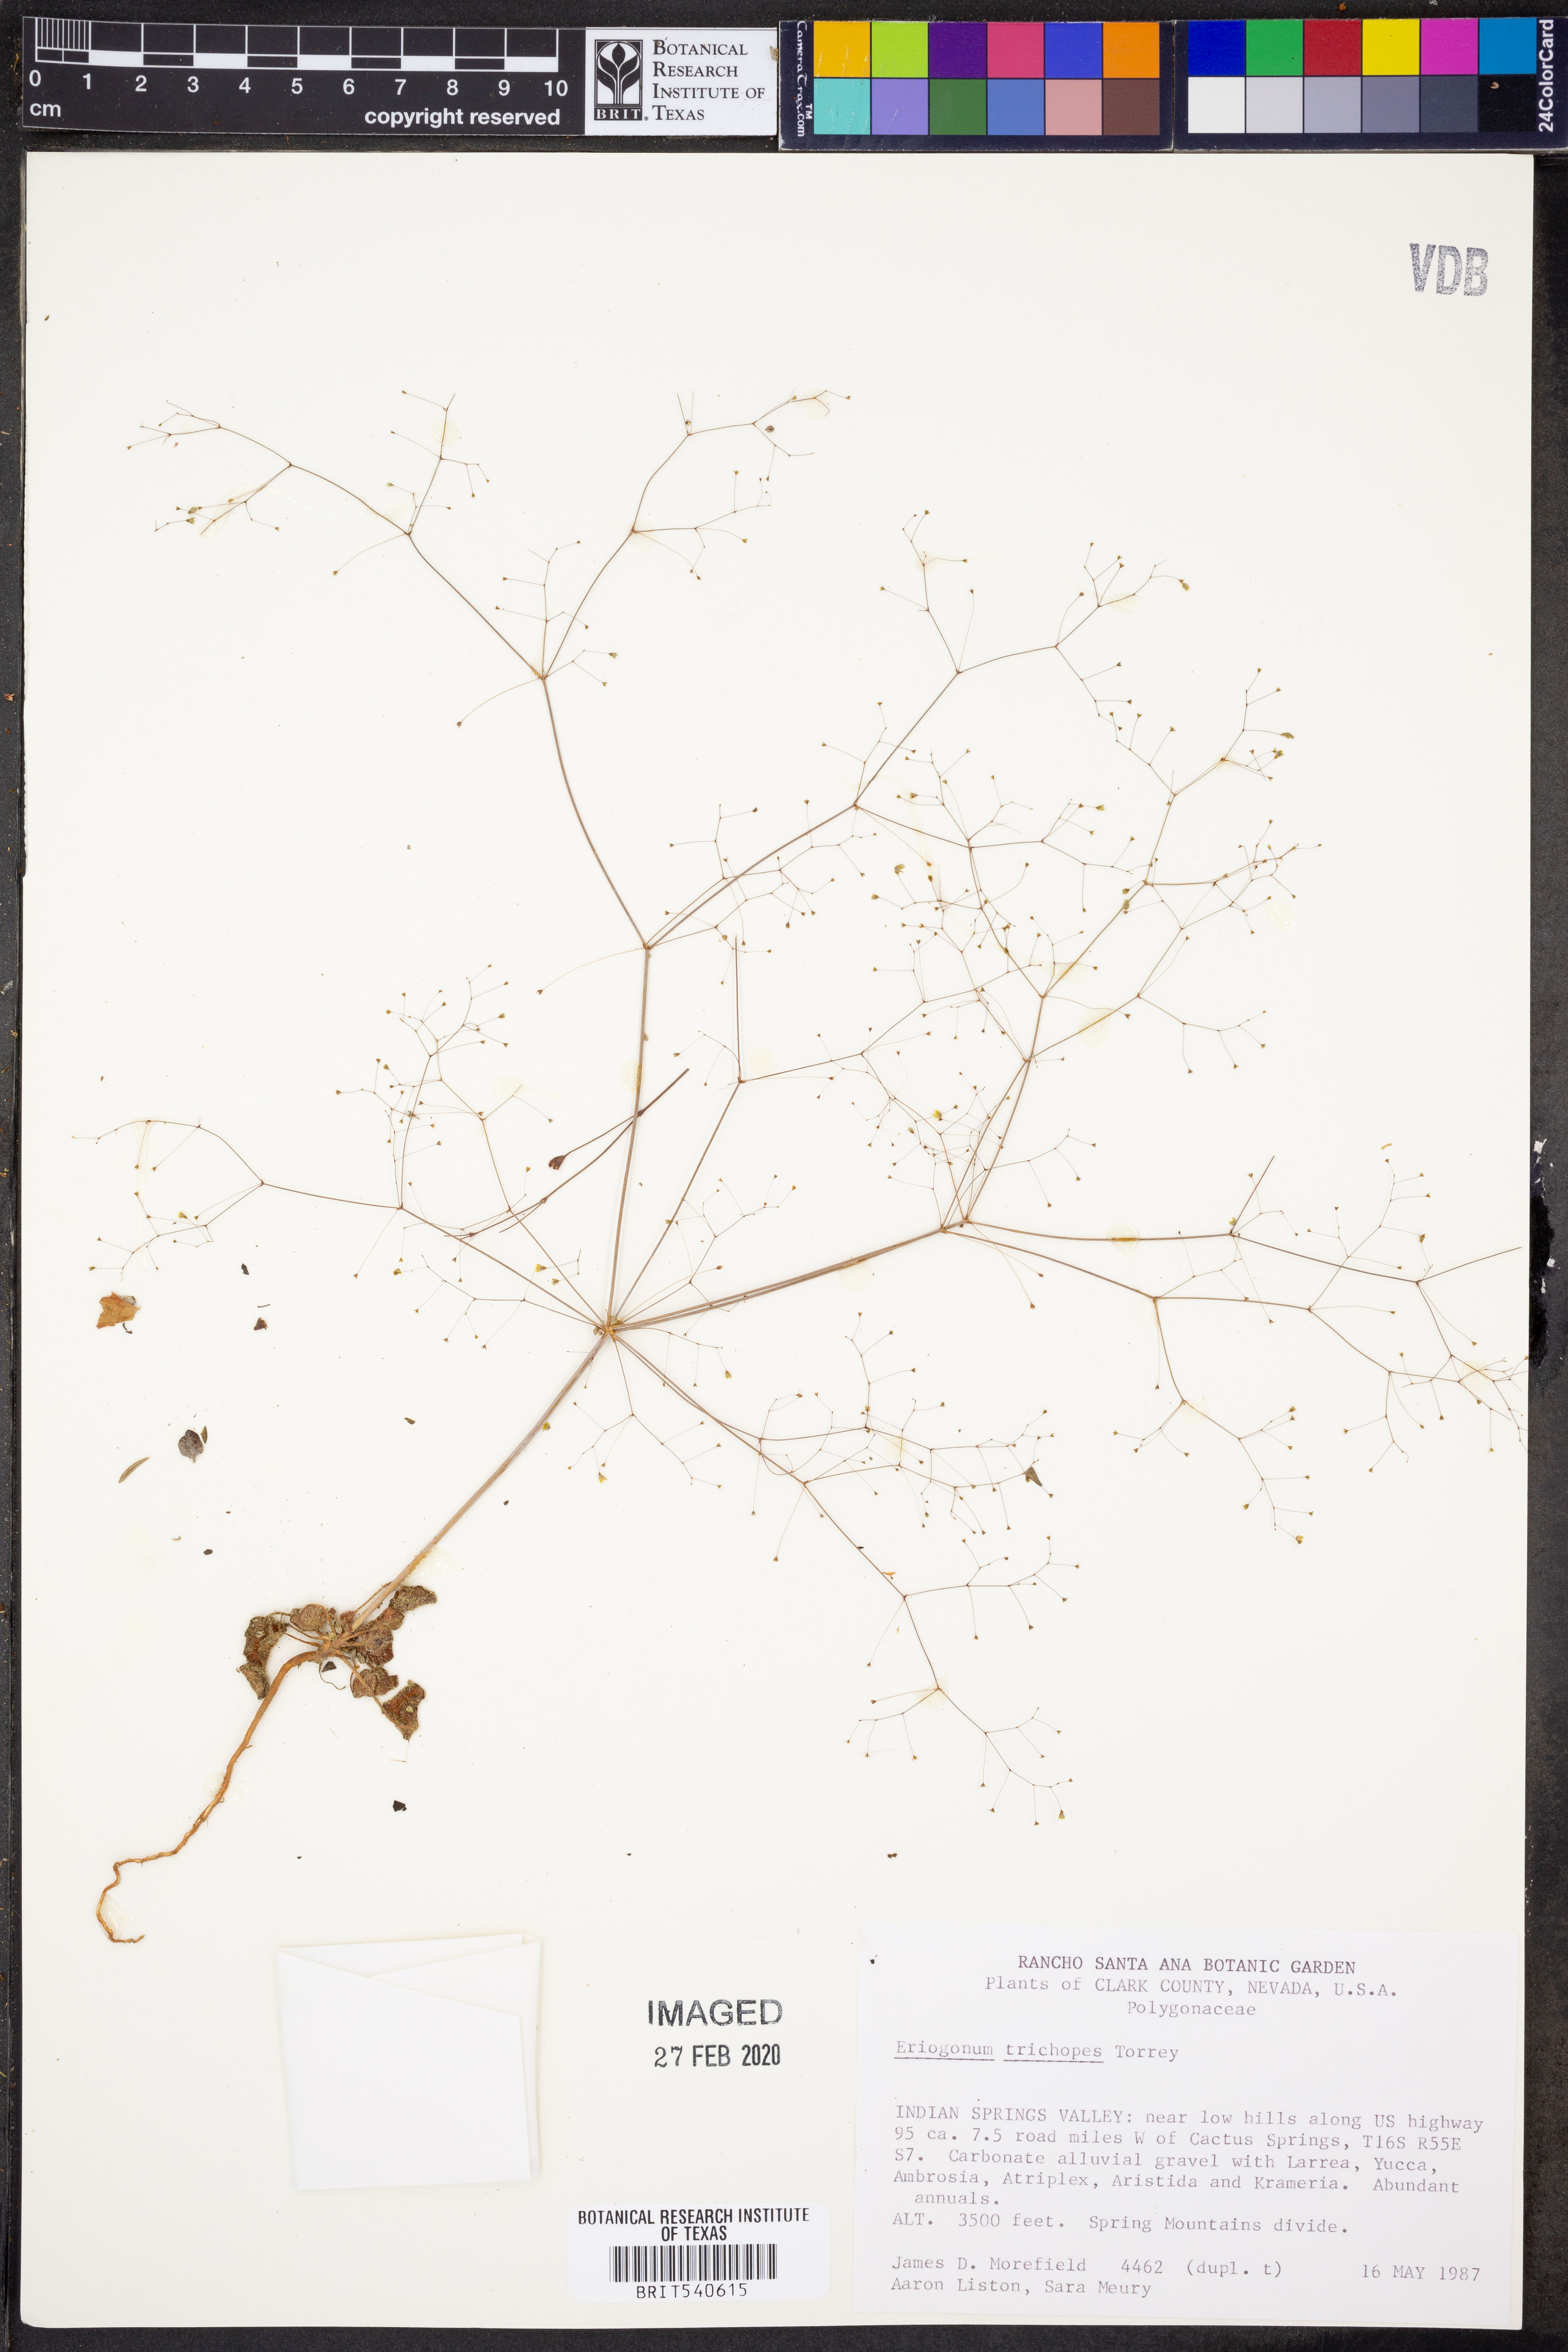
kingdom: Plantae
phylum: Tracheophyta
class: Magnoliopsida
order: Caryophyllales
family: Polygonaceae
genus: Eriogonum
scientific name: Eriogonum trichopes
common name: Little desert trumpet
